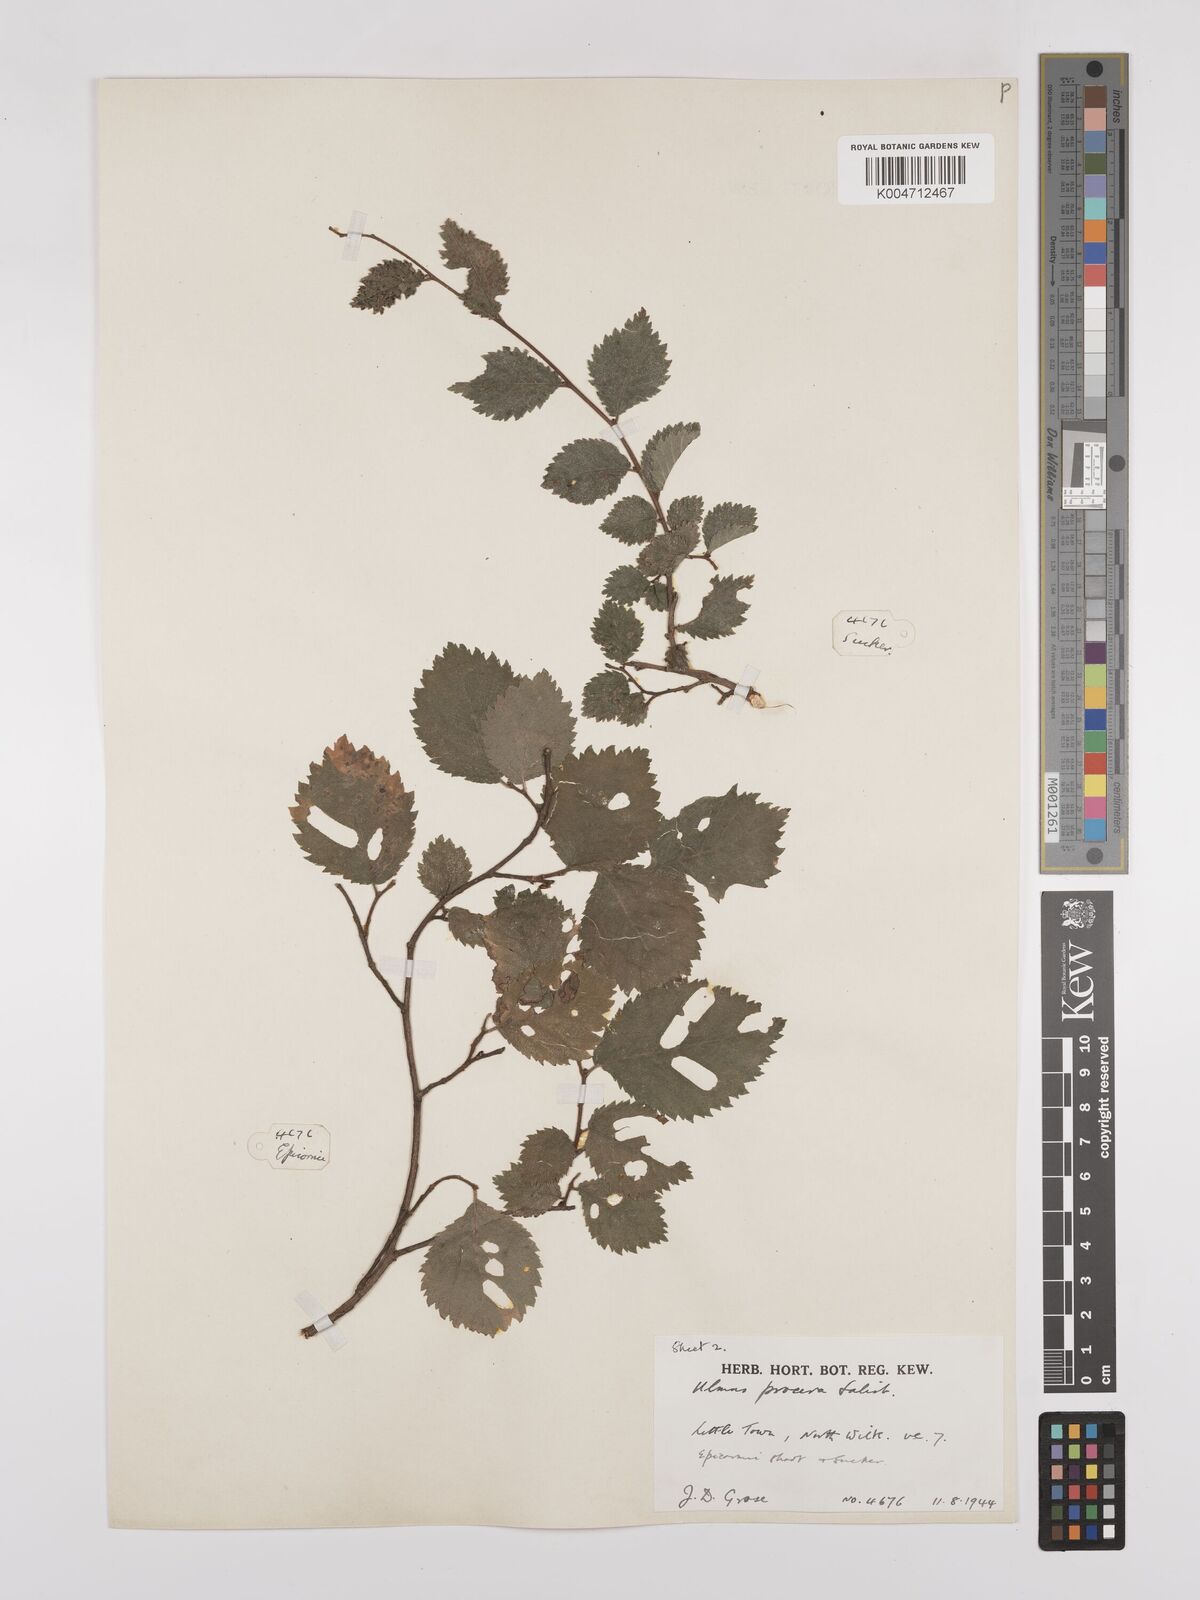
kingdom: Plantae
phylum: Tracheophyta
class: Magnoliopsida
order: Rosales
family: Ulmaceae
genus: Ulmus
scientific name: Ulmus minor
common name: Small-leaved elm
